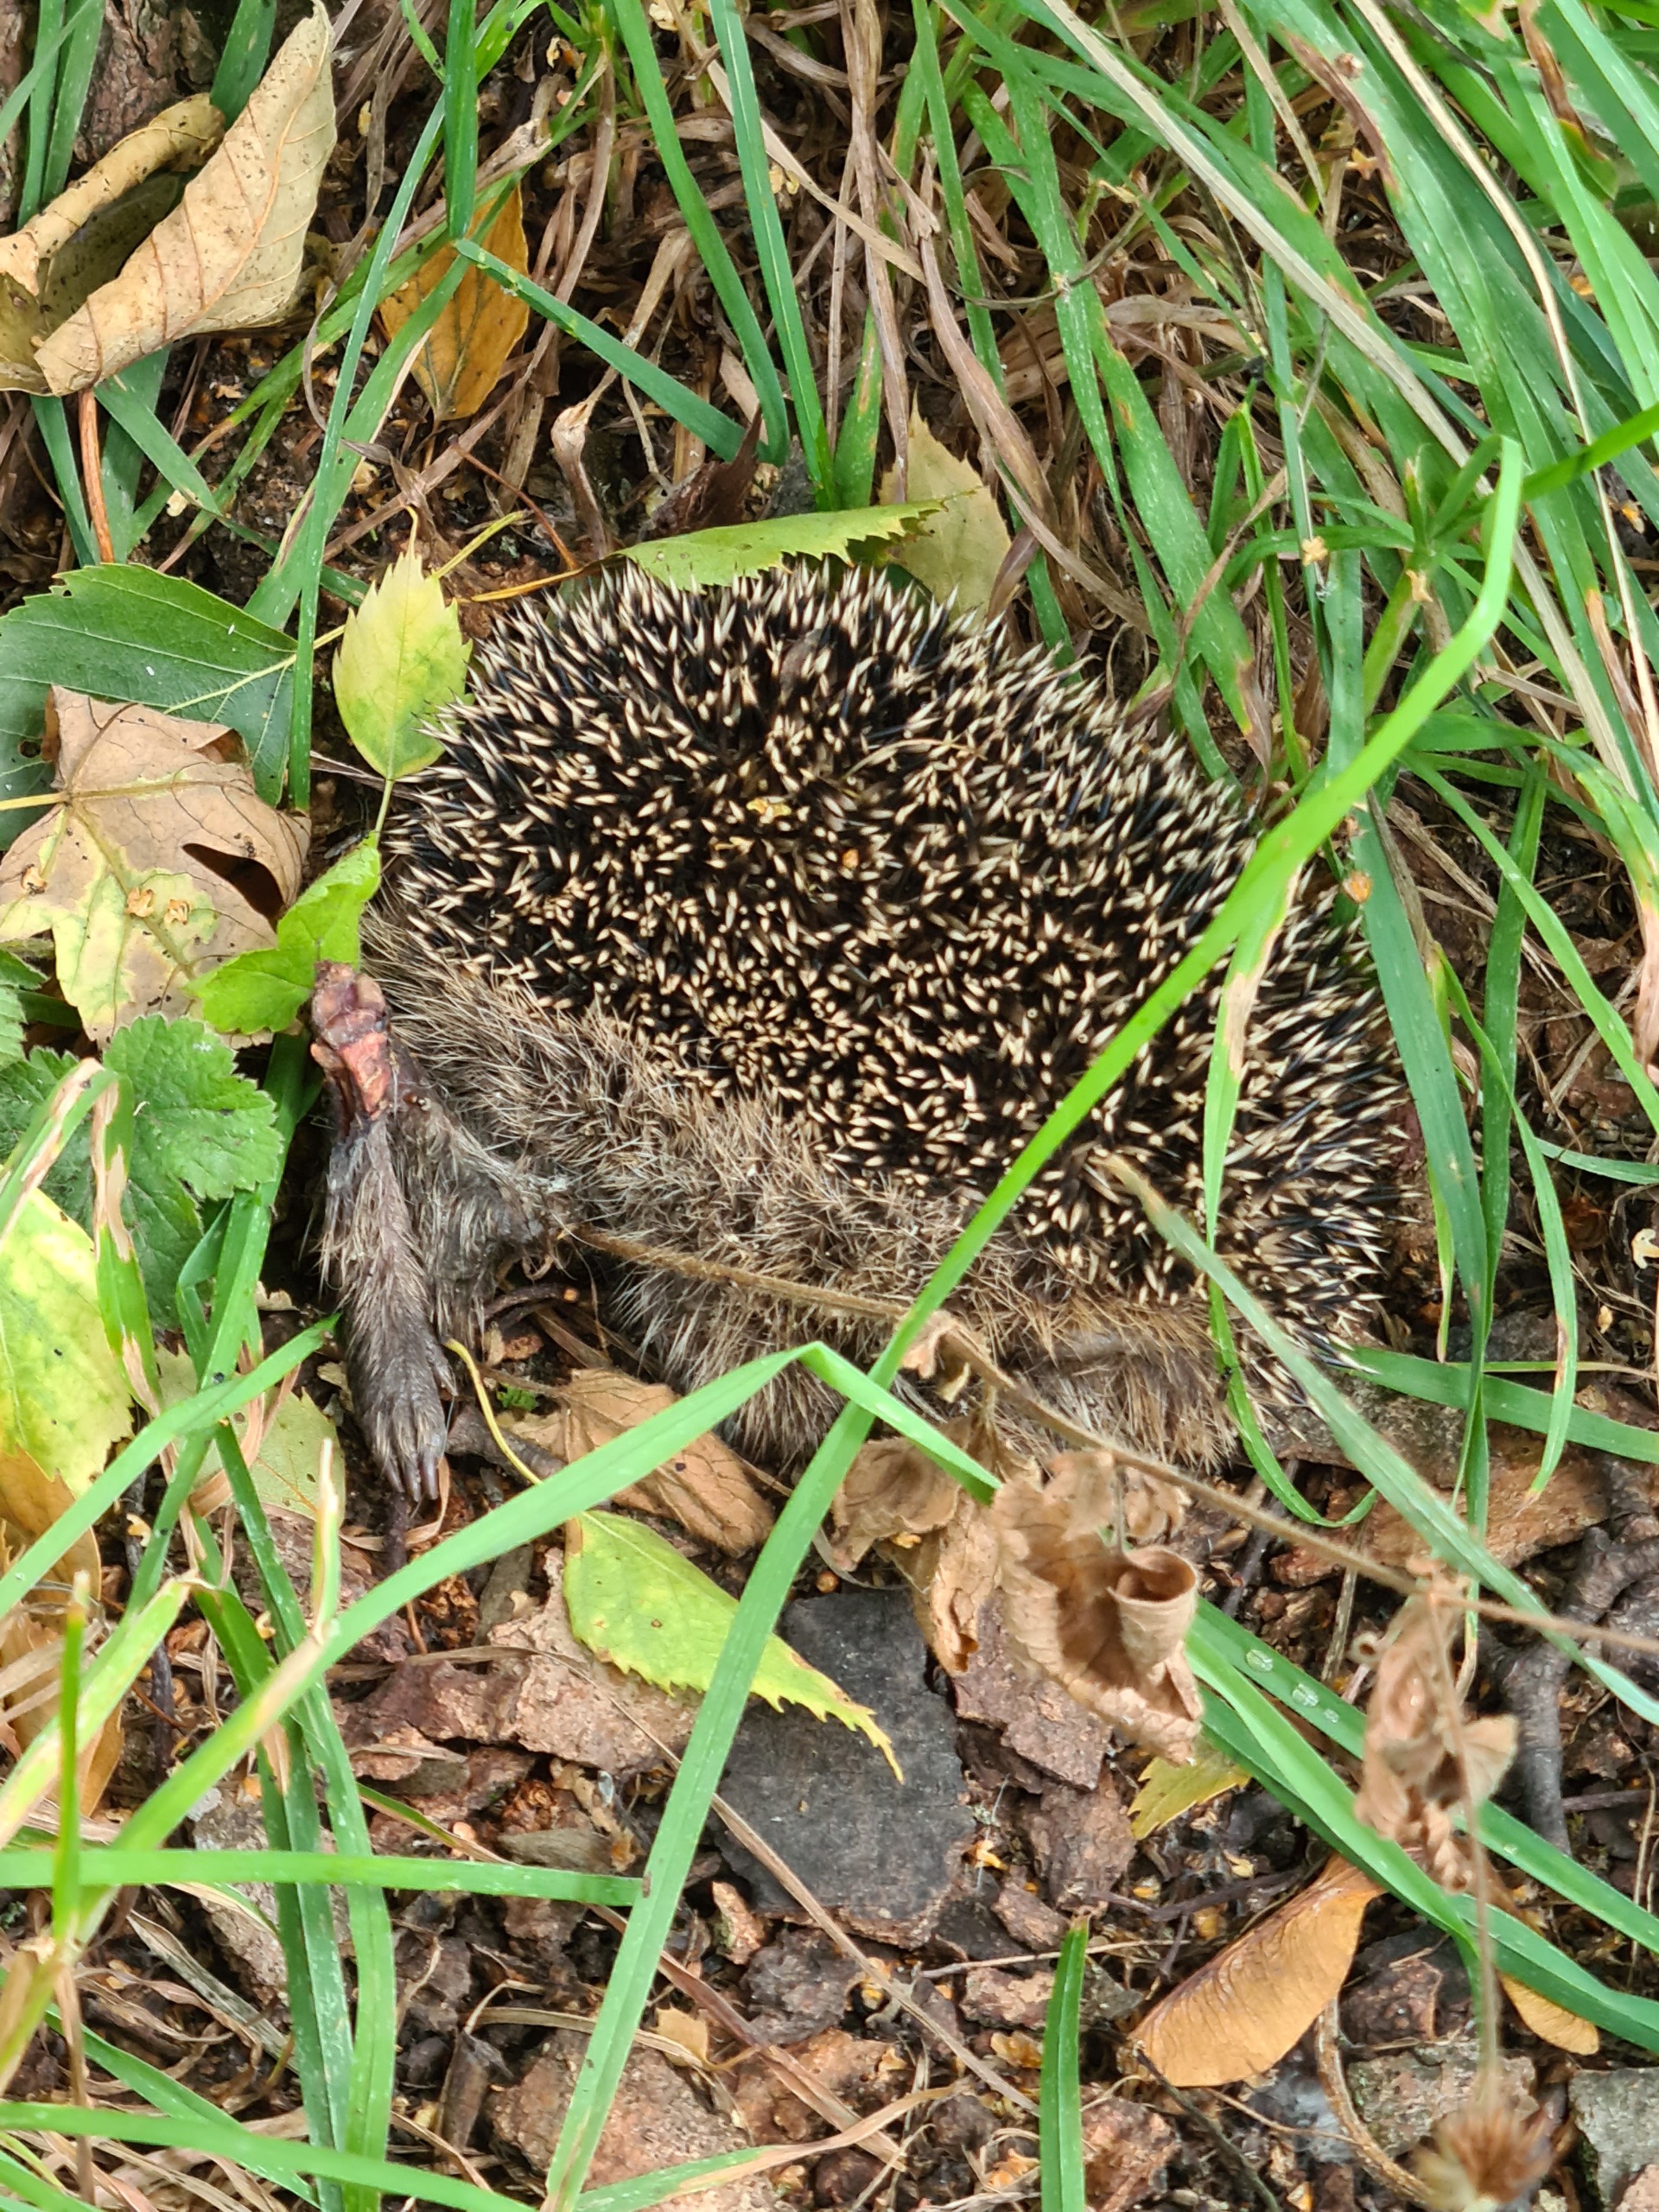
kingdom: Animalia
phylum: Chordata
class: Mammalia
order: Erinaceomorpha
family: Erinaceidae
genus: Erinaceus
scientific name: Erinaceus europaeus
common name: Pindsvin
